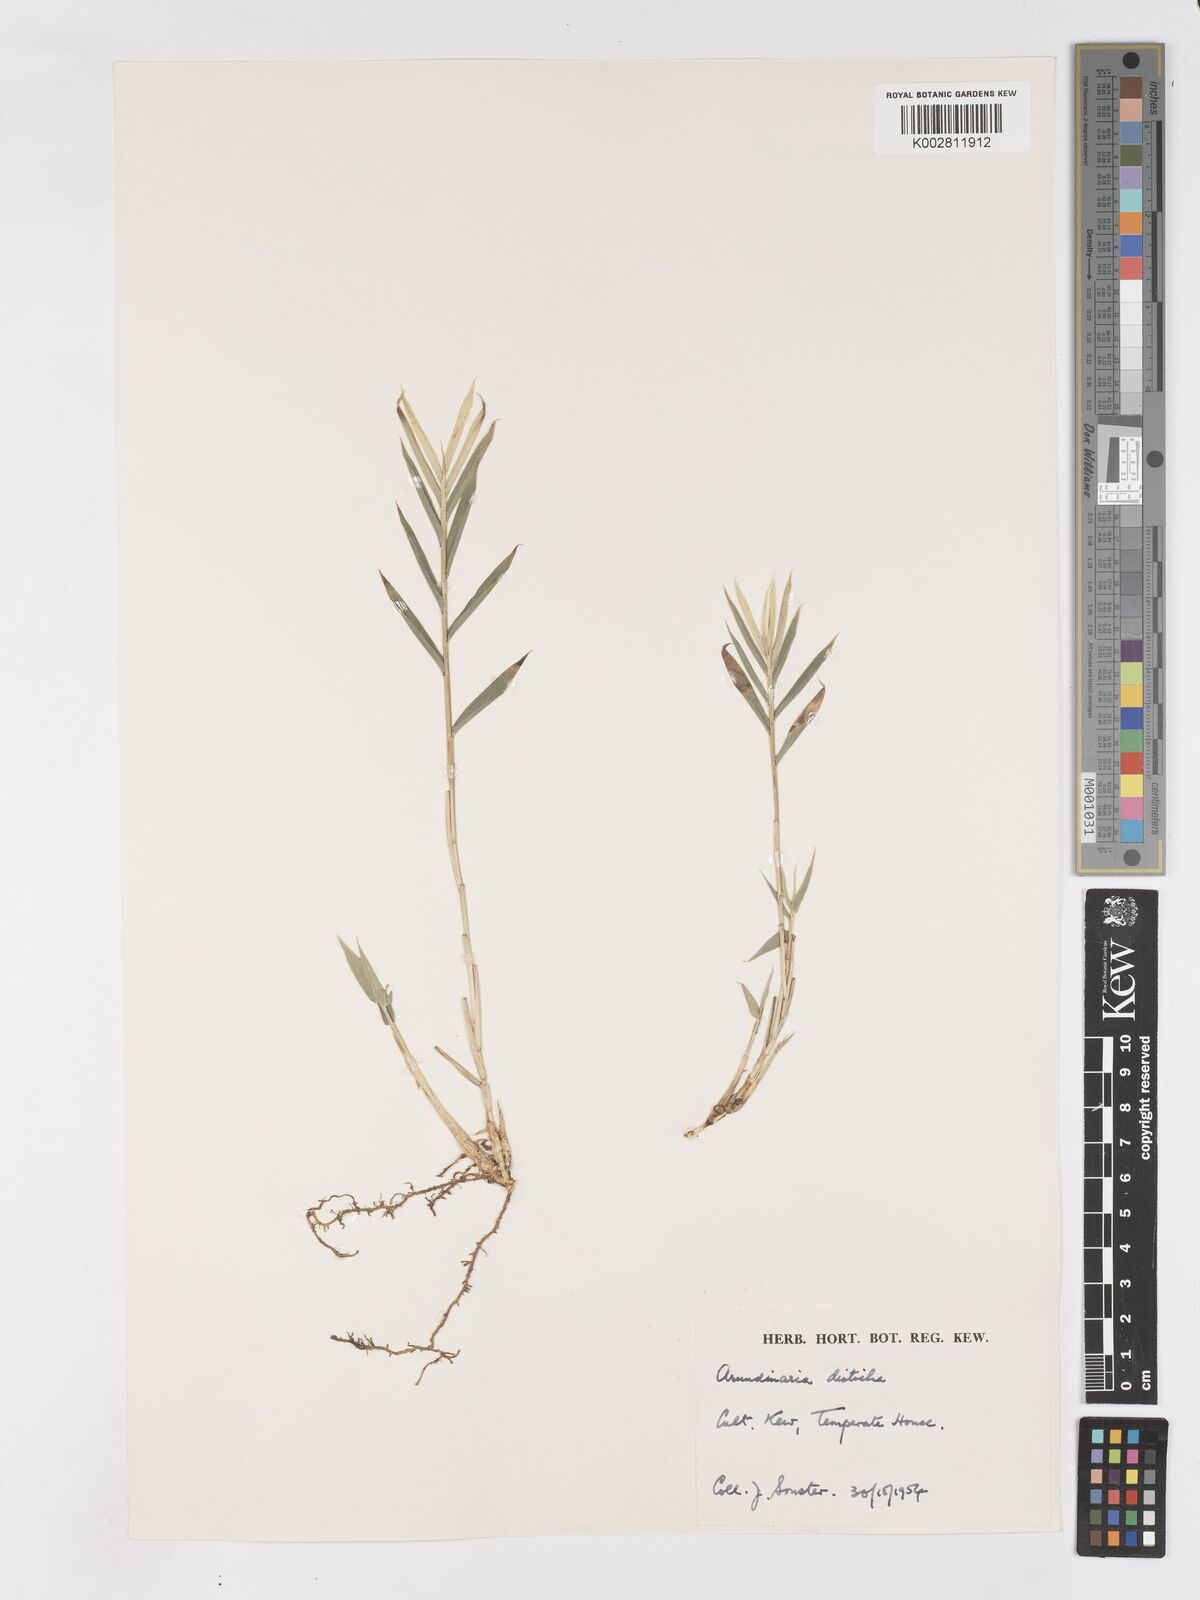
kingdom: Plantae
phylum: Tracheophyta
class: Liliopsida
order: Poales
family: Poaceae
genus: Pleioblastus
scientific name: Pleioblastus distichus
